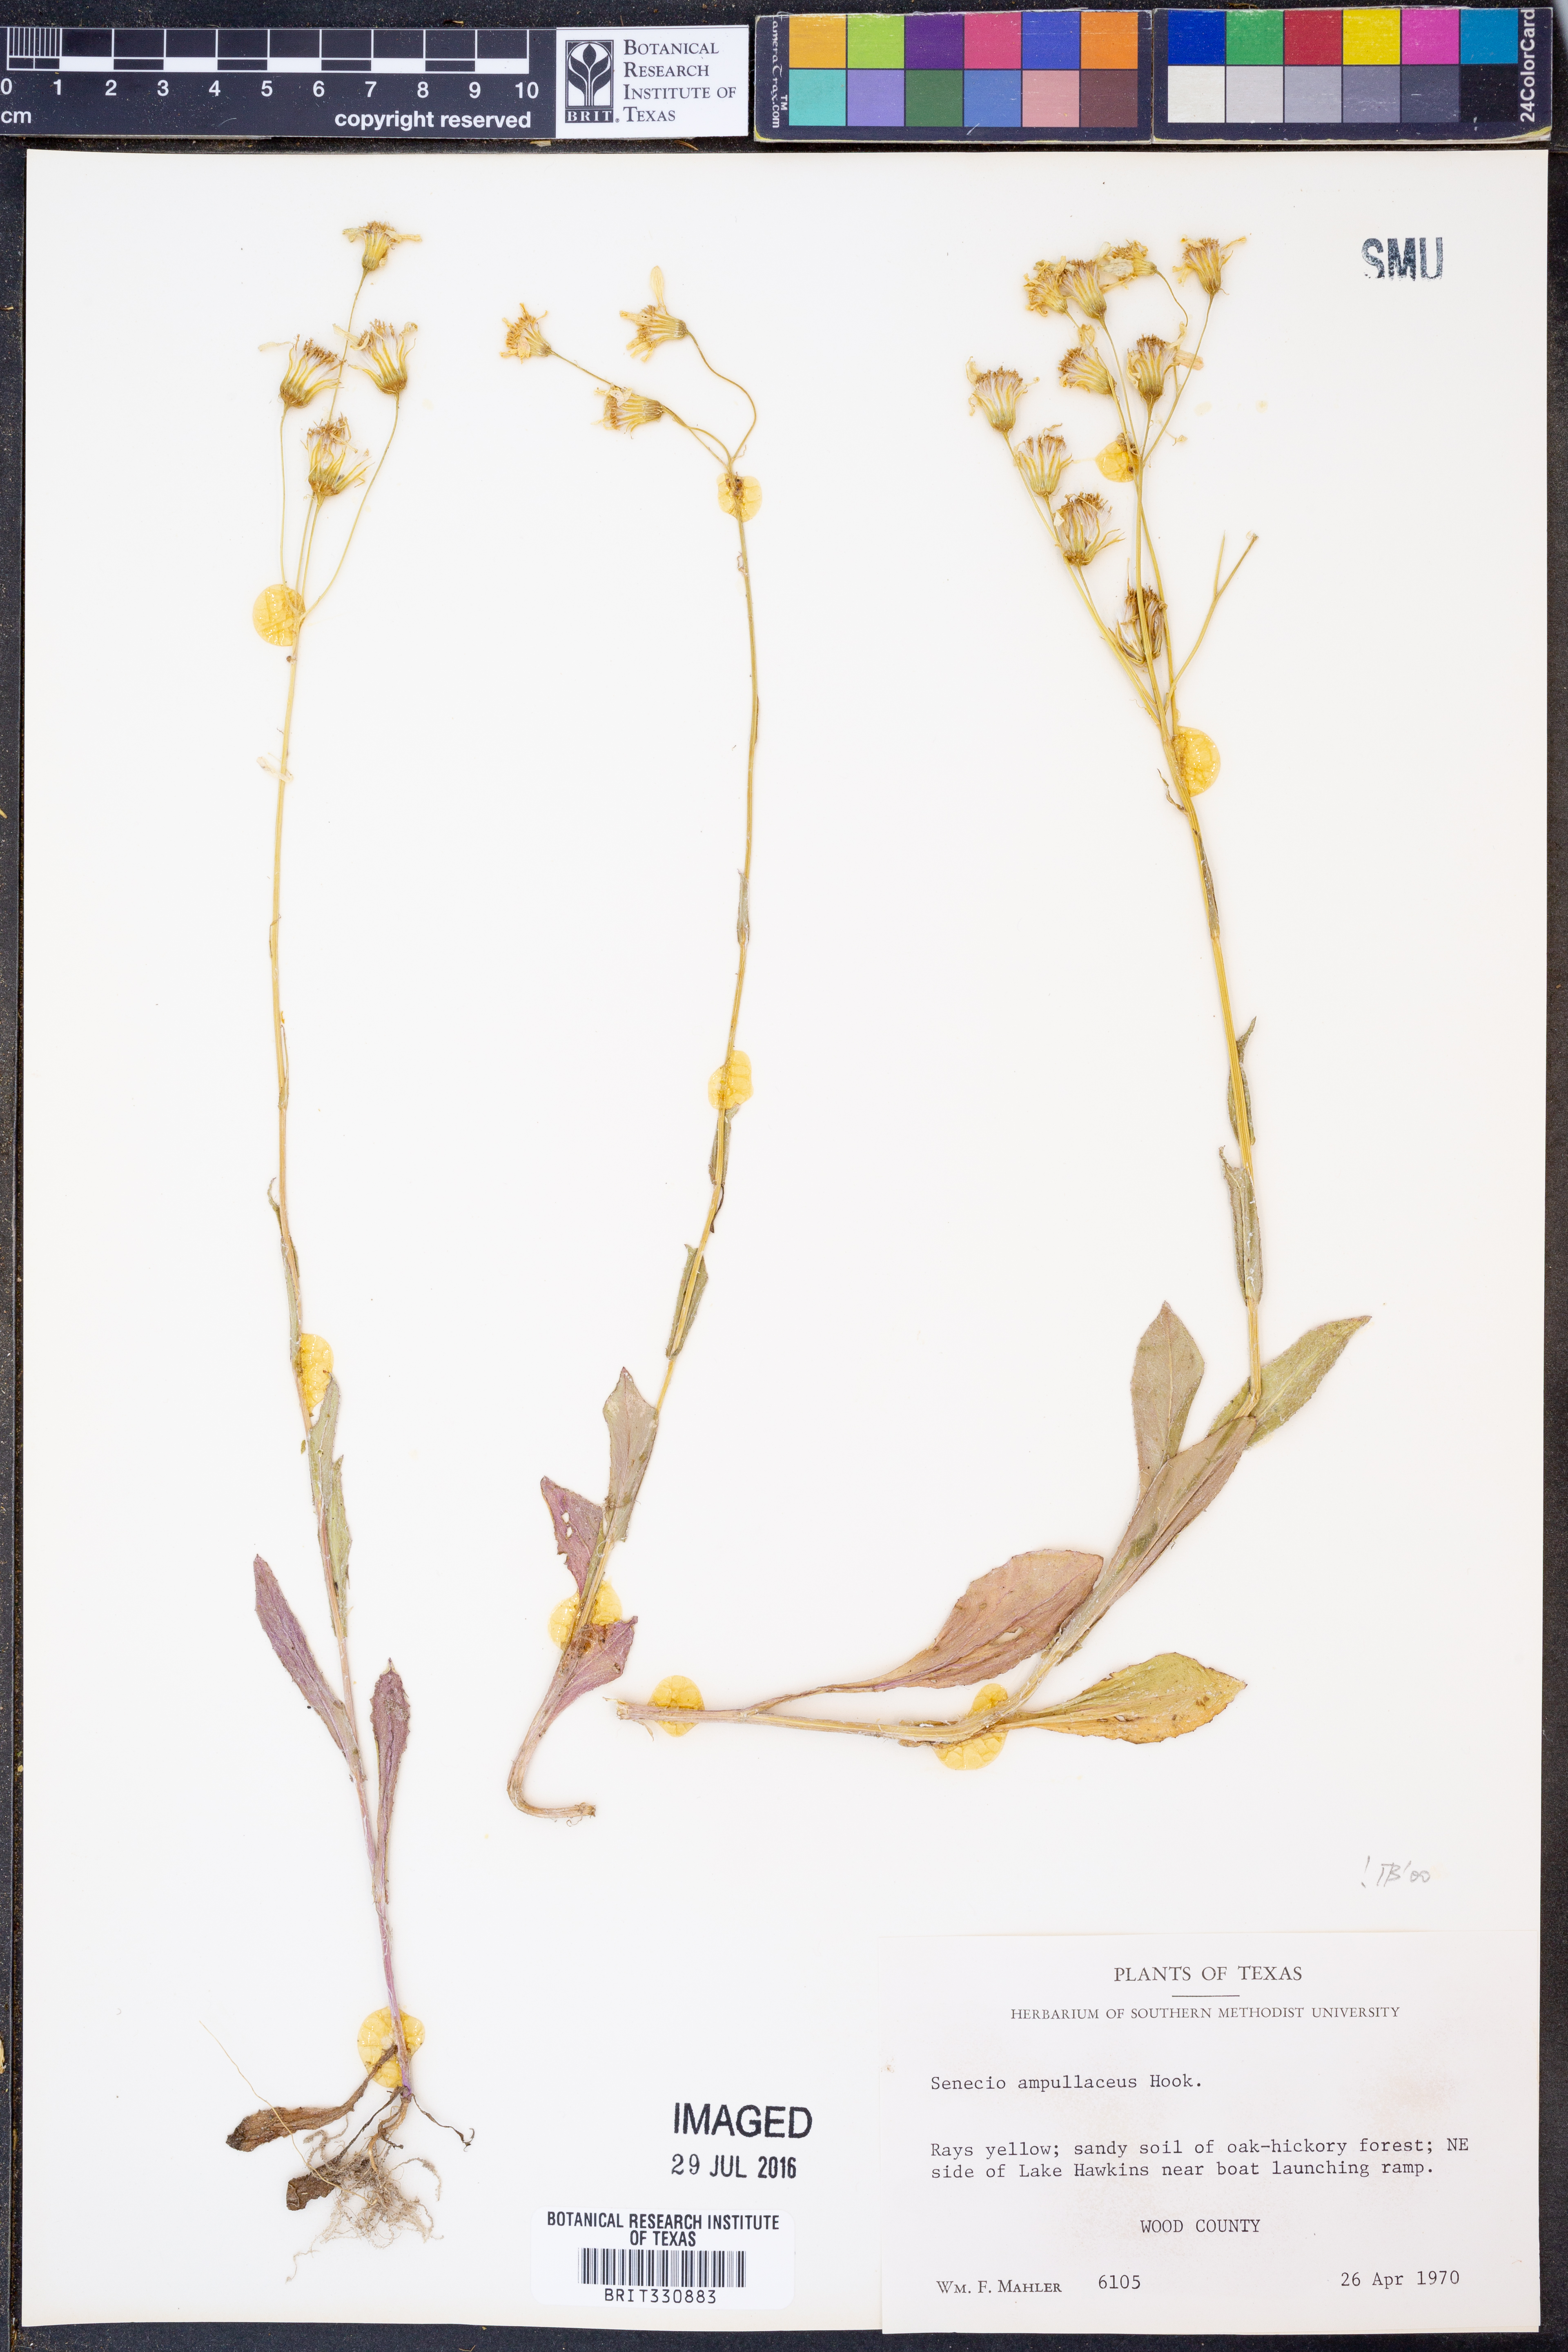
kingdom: Plantae
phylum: Tracheophyta
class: Magnoliopsida
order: Asterales
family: Asteraceae
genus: Senecio
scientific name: Senecio ampullaceus
